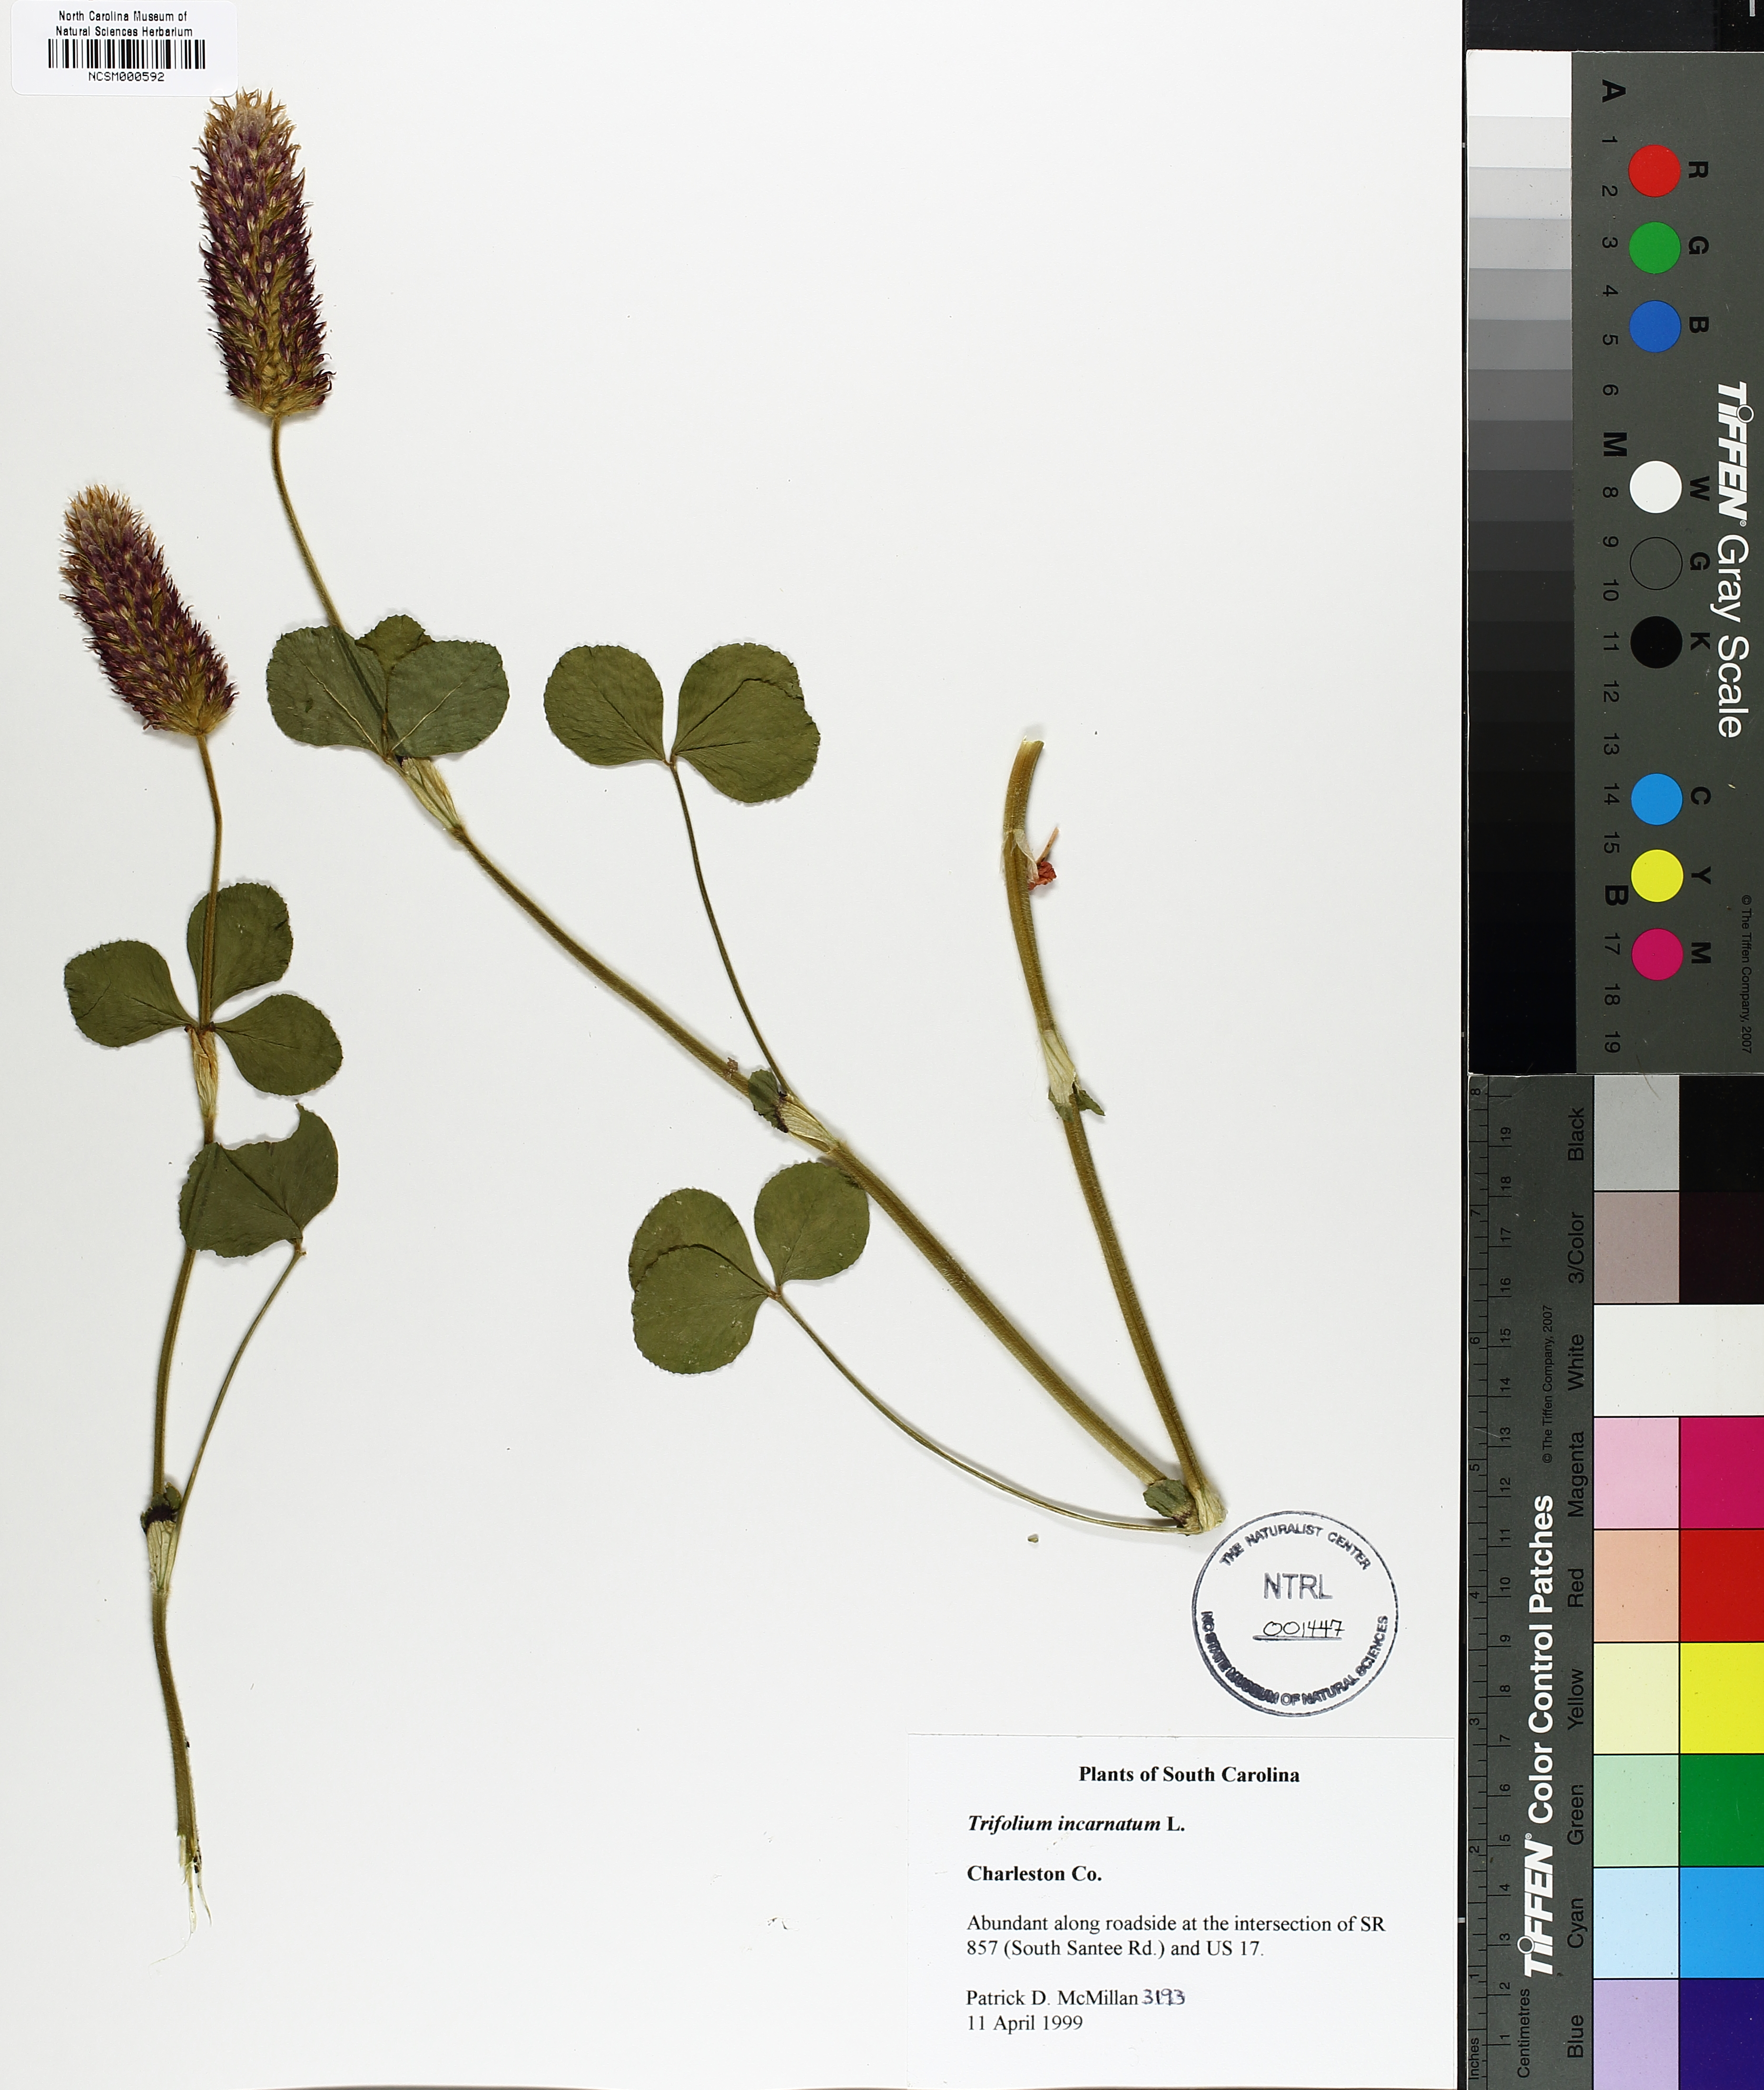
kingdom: Plantae
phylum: Tracheophyta
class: Magnoliopsida
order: Fabales
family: Fabaceae
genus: Trifolium
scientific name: Trifolium incarnatum
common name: Crimson clover
